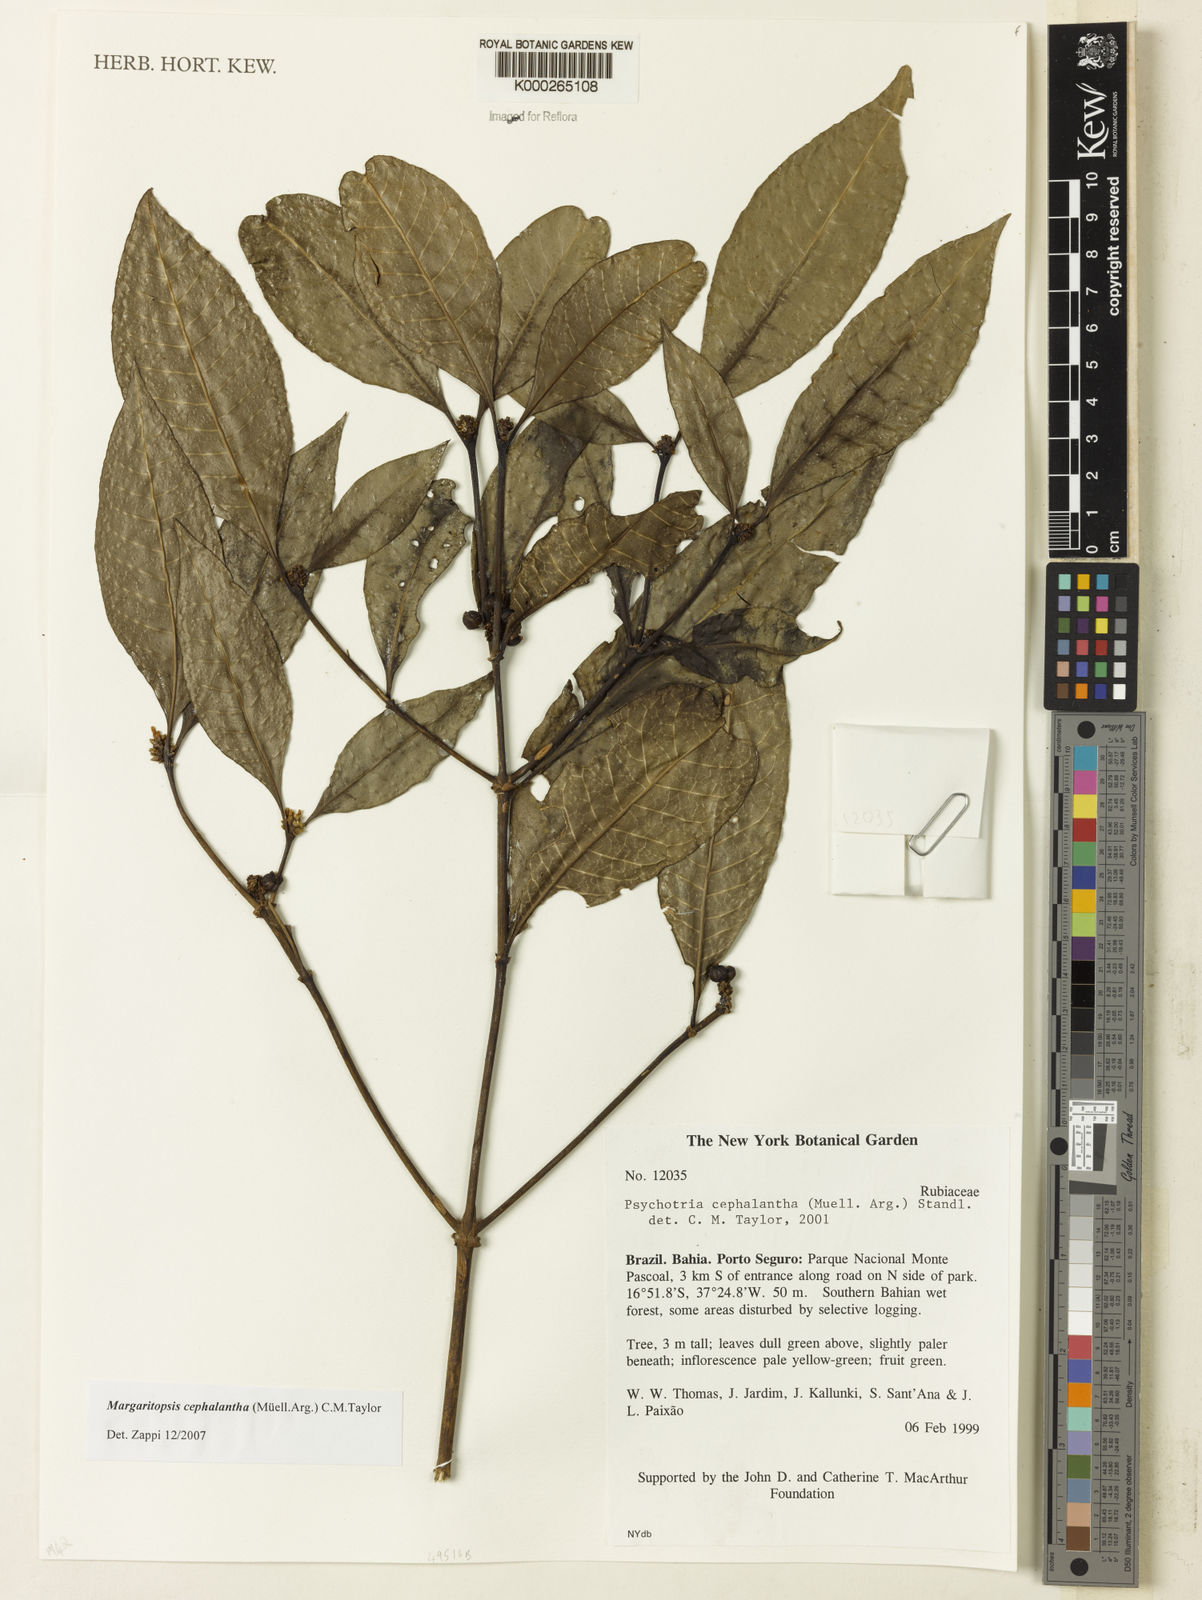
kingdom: Plantae
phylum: Tracheophyta
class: Magnoliopsida
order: Gentianales
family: Rubiaceae
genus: Eumachia
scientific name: Eumachia cephalantha
